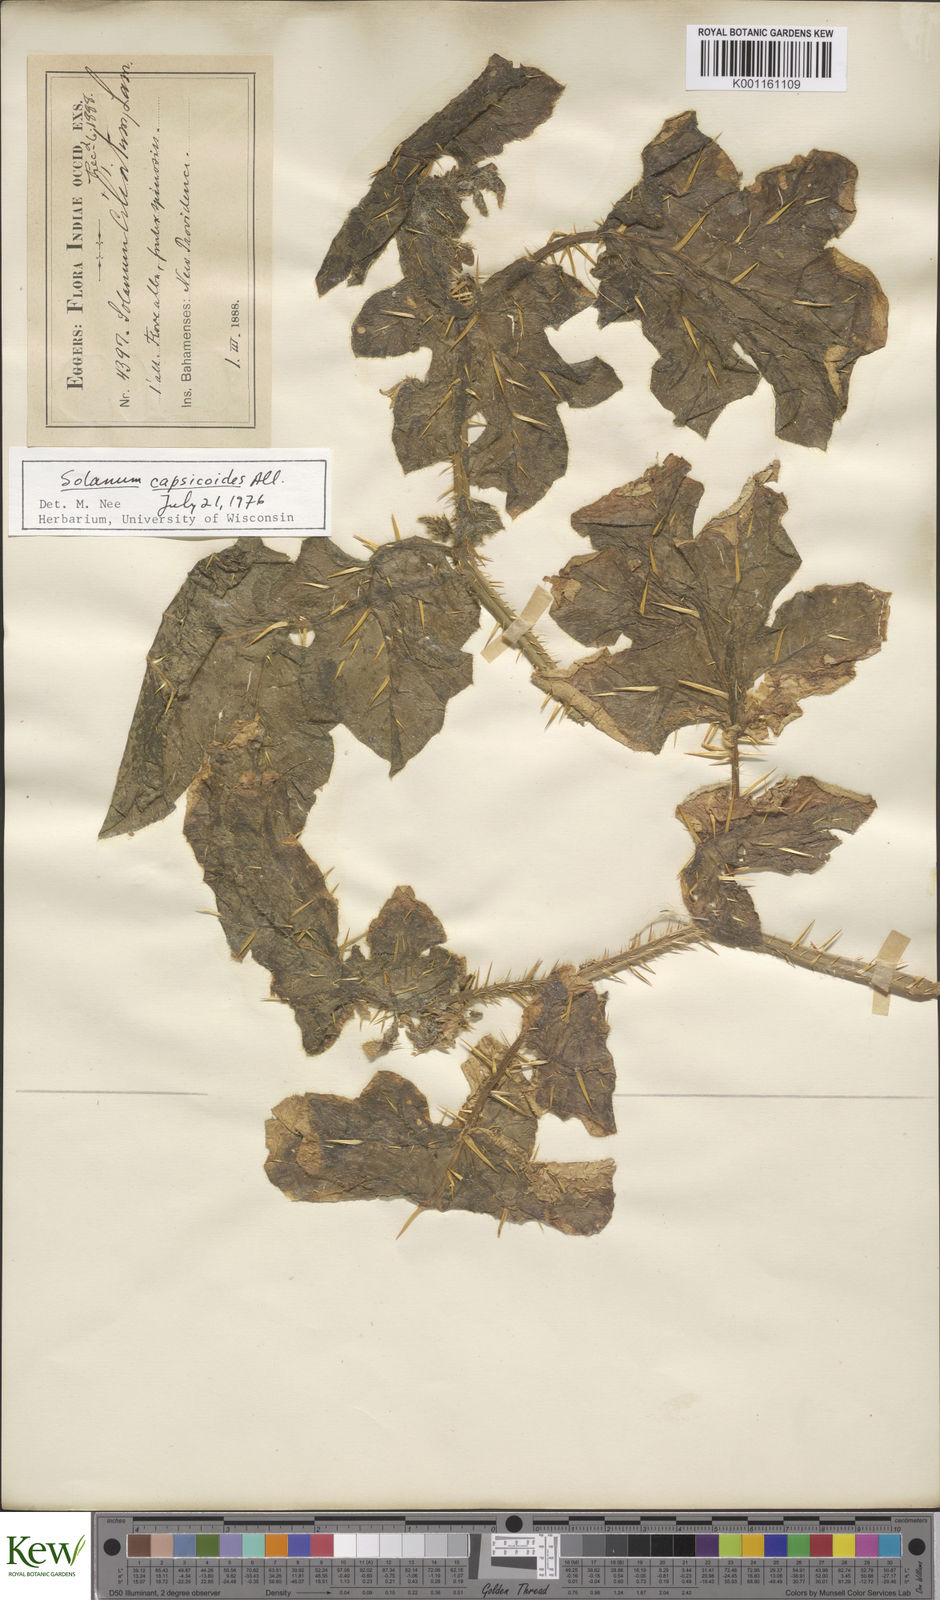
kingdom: Plantae
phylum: Tracheophyta
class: Magnoliopsida
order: Solanales
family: Solanaceae
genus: Solanum
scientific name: Solanum aculeatissimum
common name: Dutch eggplant
